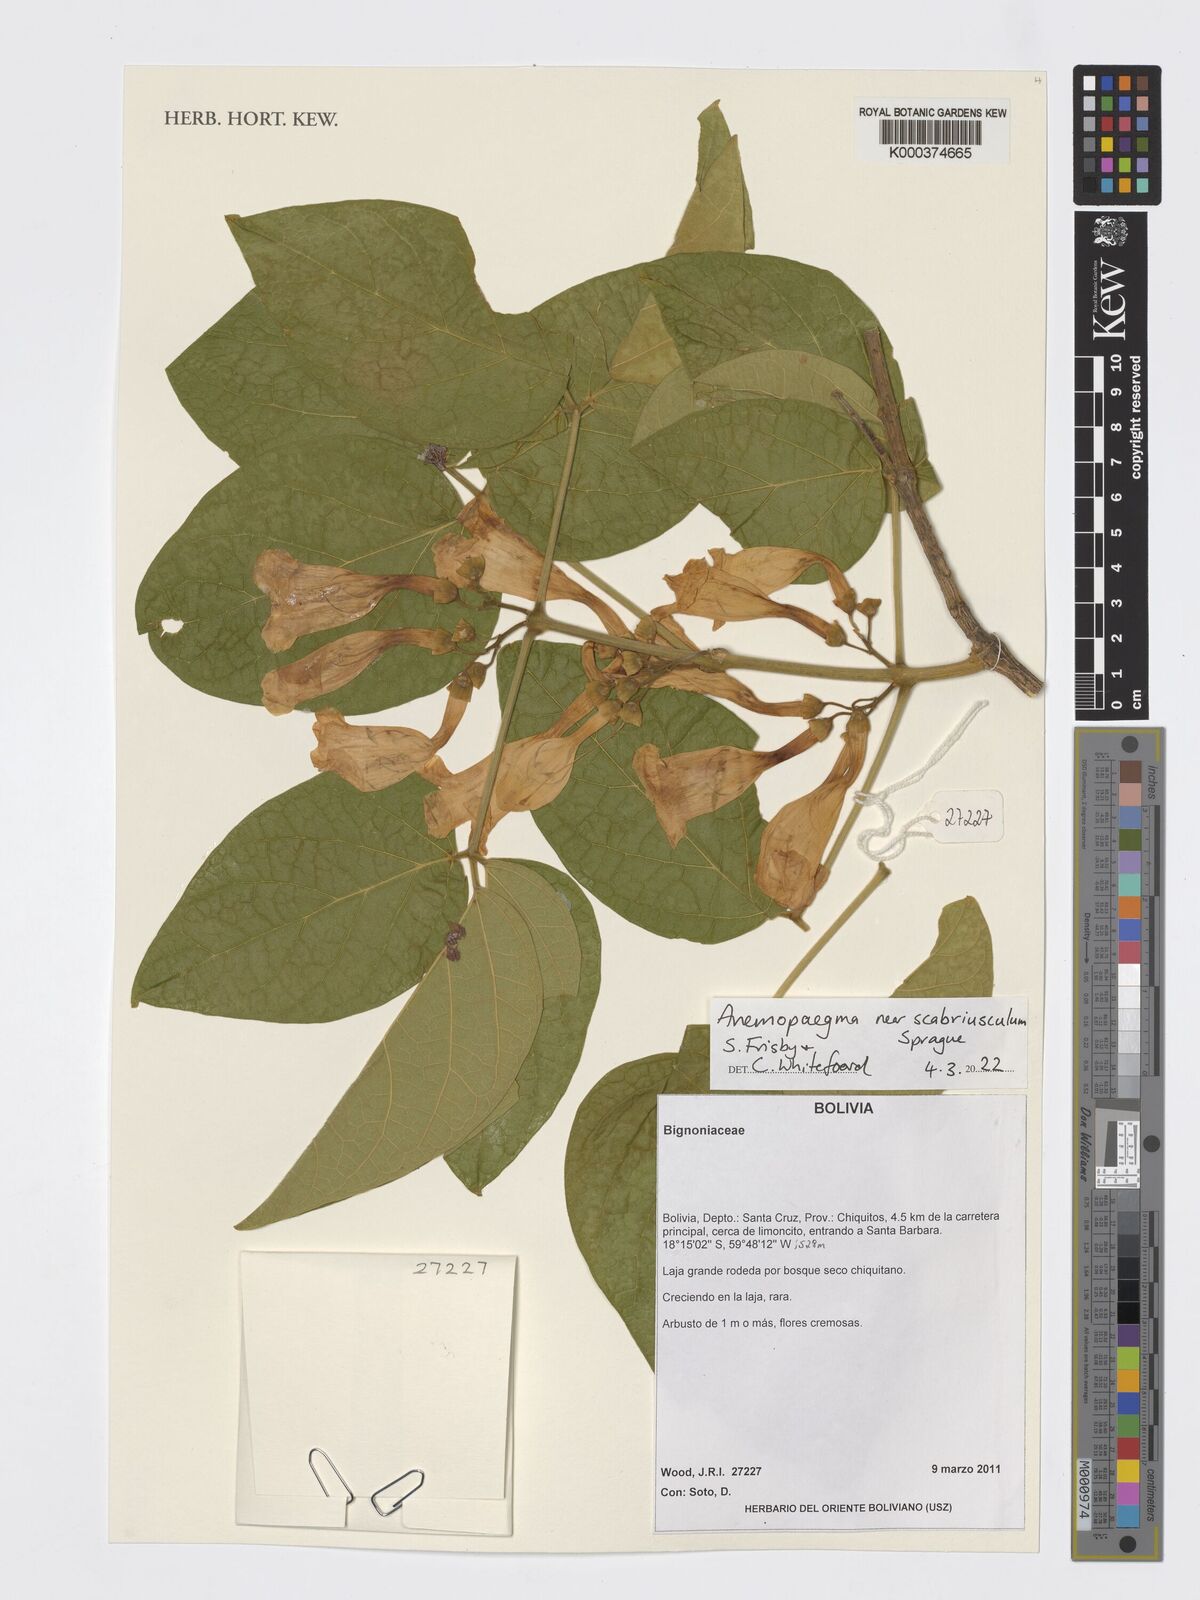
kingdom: Plantae
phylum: Tracheophyta
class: Magnoliopsida
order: Lamiales
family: Bignoniaceae
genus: Anemopaegma
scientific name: Anemopaegma scabriusculum
